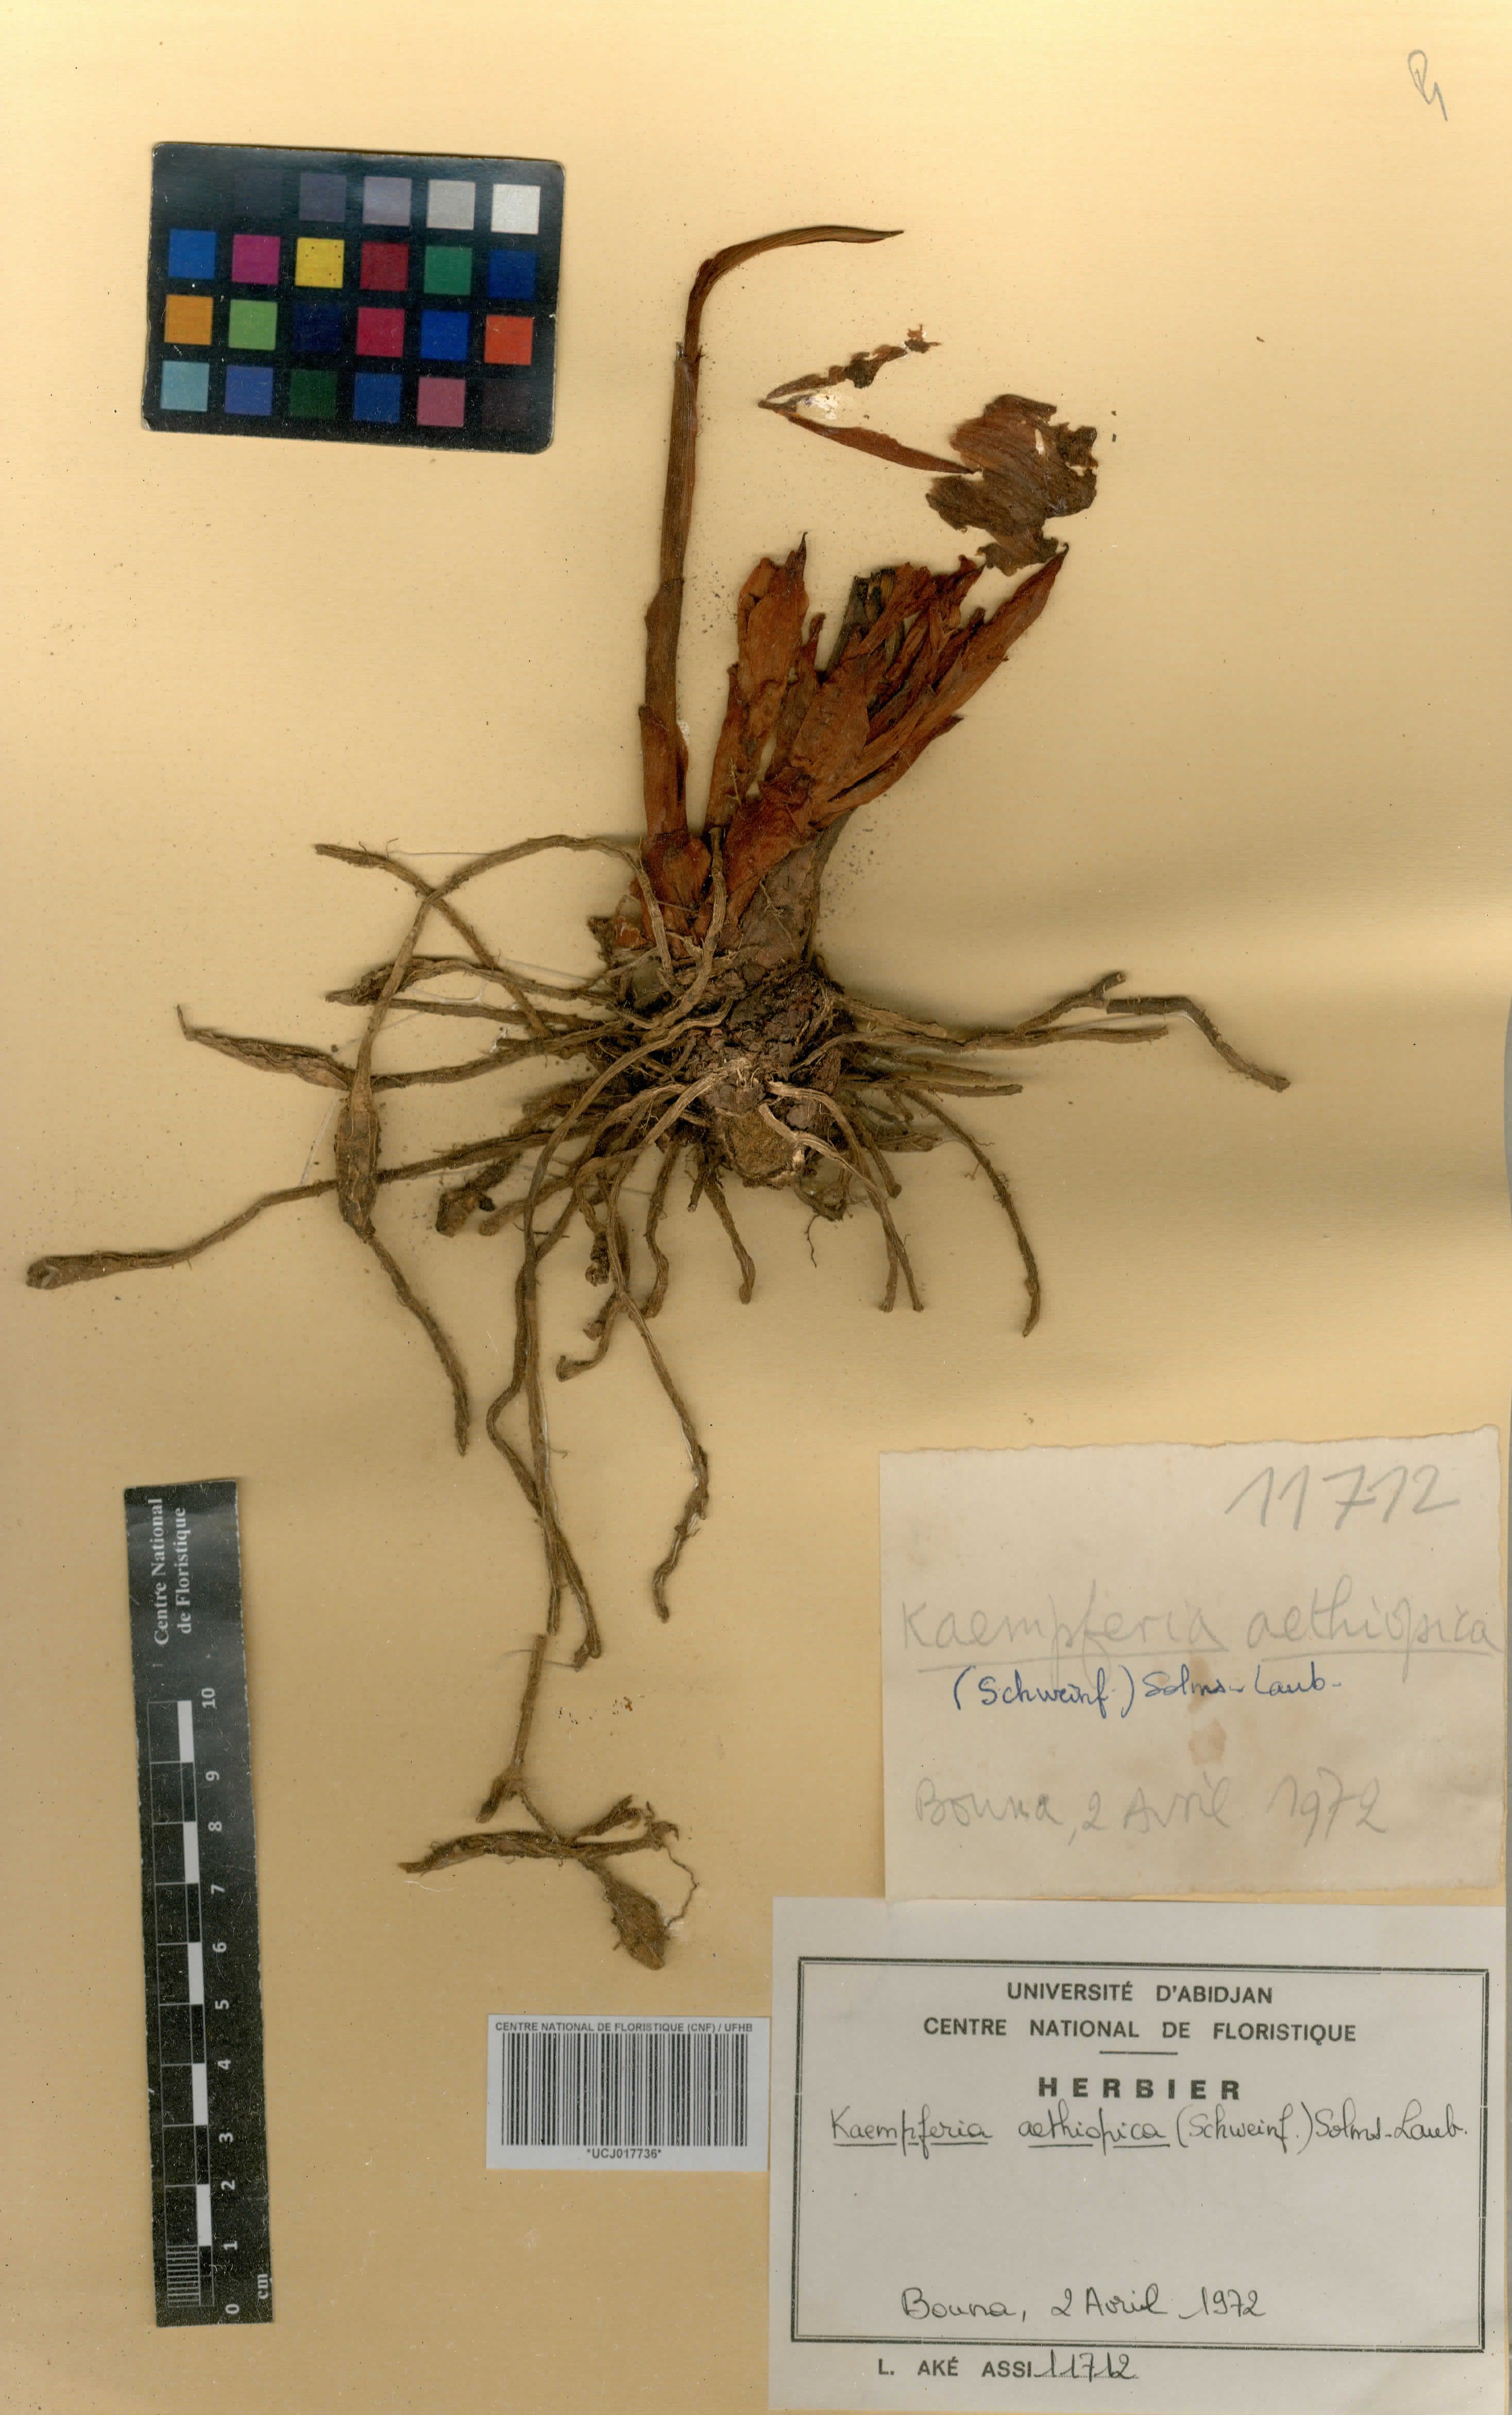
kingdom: Plantae
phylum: Tracheophyta
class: Liliopsida
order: Zingiberales
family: Zingiberaceae
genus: Kaempferia
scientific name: Kaempferia aethiopica
